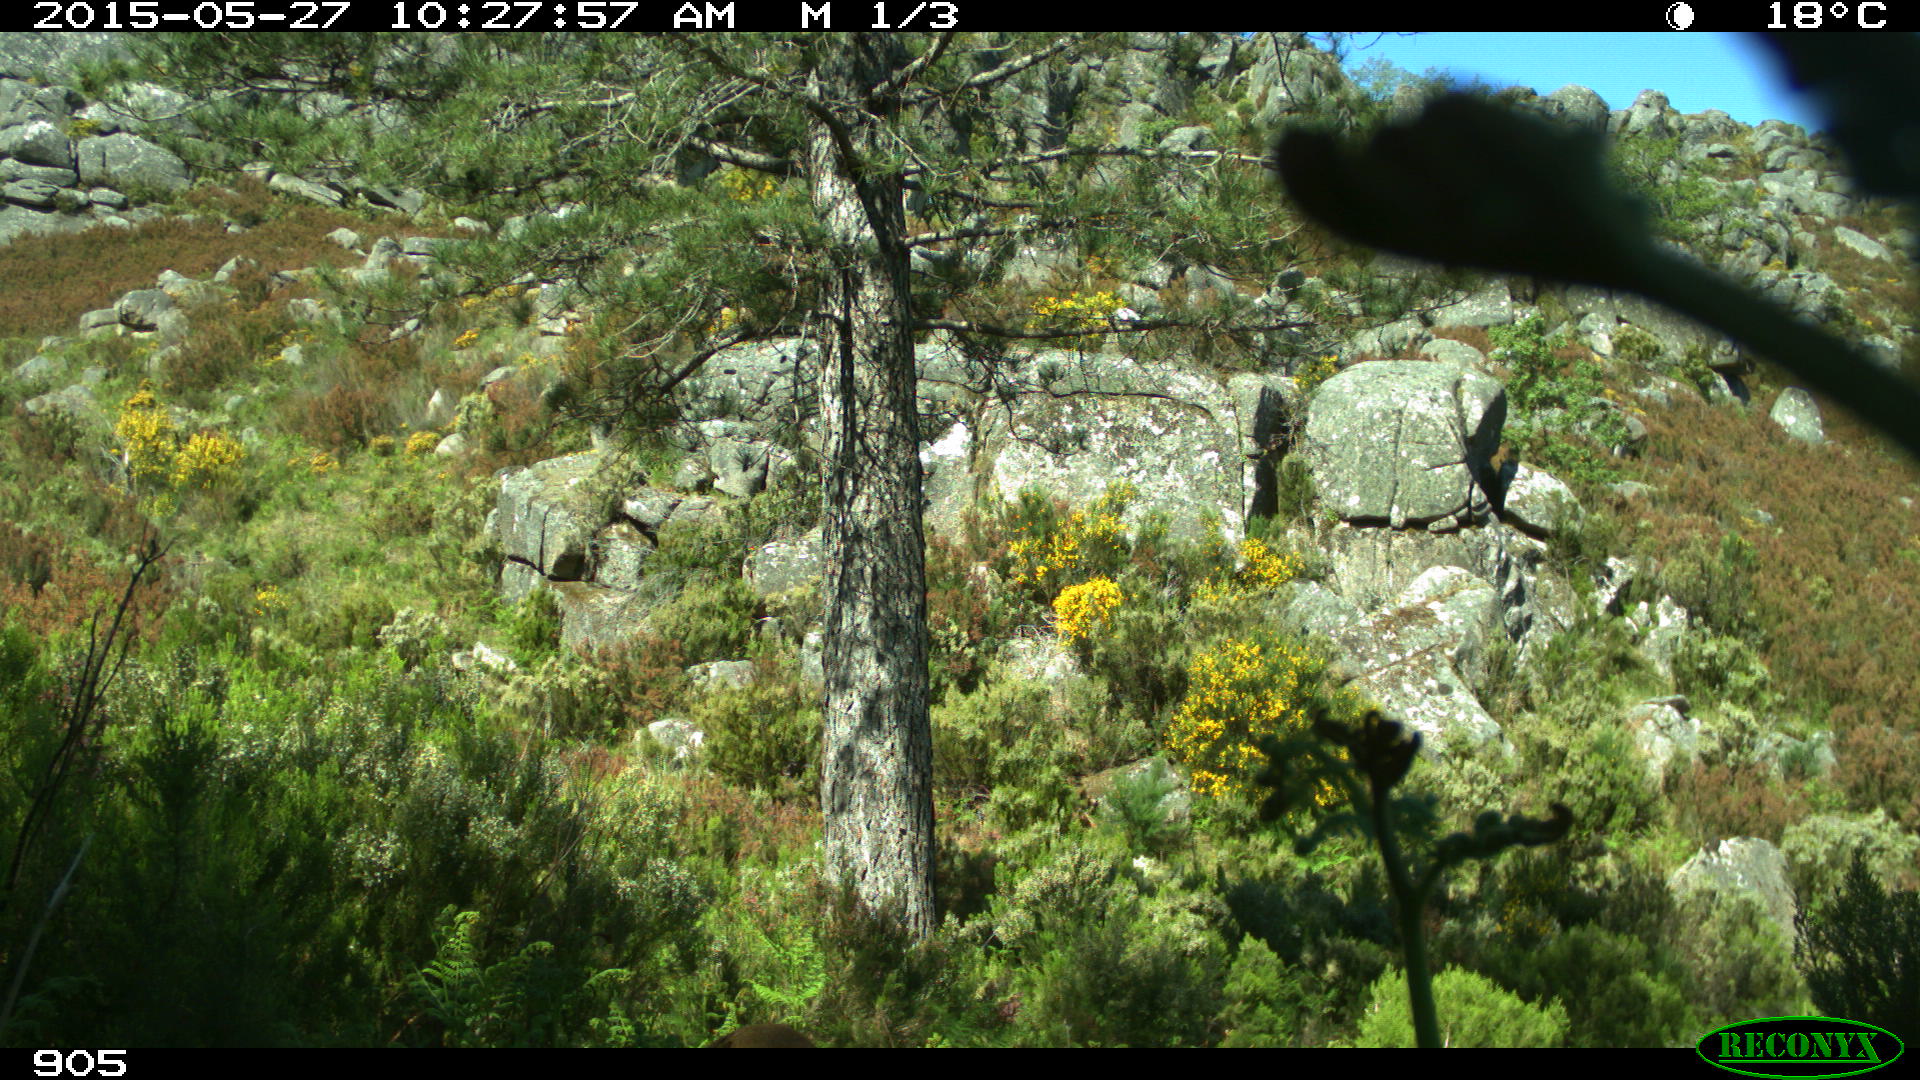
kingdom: Animalia
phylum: Chordata
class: Mammalia
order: Artiodactyla
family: Cervidae
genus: Capreolus
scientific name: Capreolus capreolus
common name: Western roe deer
